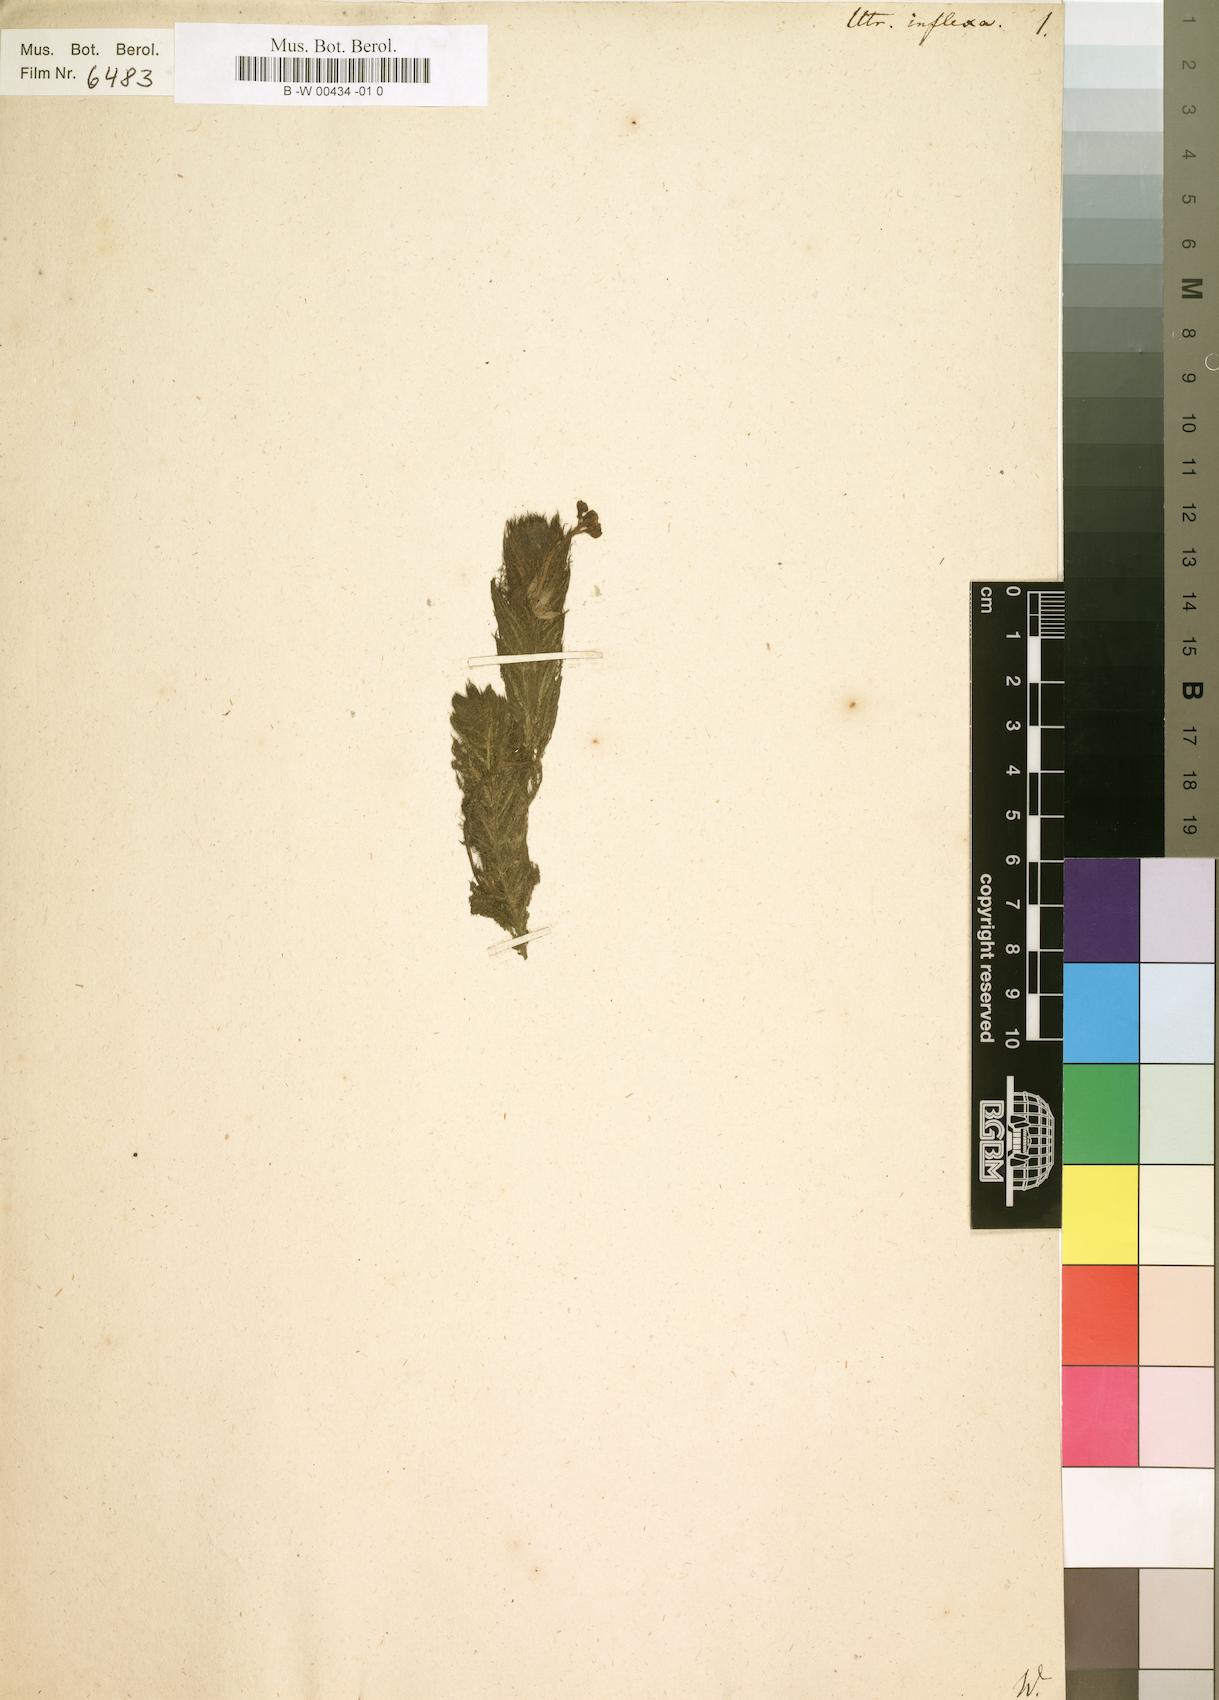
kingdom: Plantae
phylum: Tracheophyta
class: Magnoliopsida
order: Lamiales
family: Lentibulariaceae
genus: Utricularia
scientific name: Utricularia inflexa
